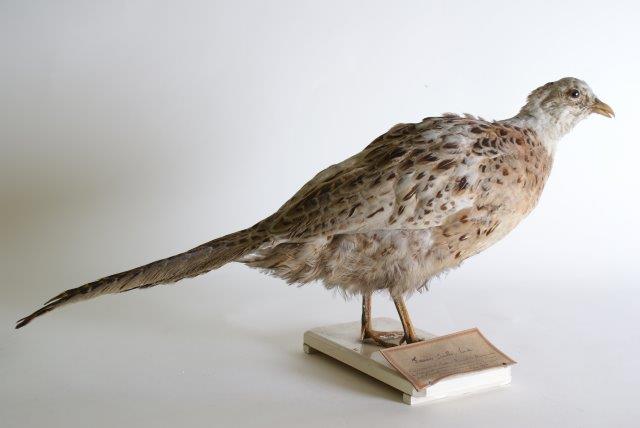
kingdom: Animalia
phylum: Chordata
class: Aves
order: Galliformes
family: Phasianidae
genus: Phasianus
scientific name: Phasianus colchicus
